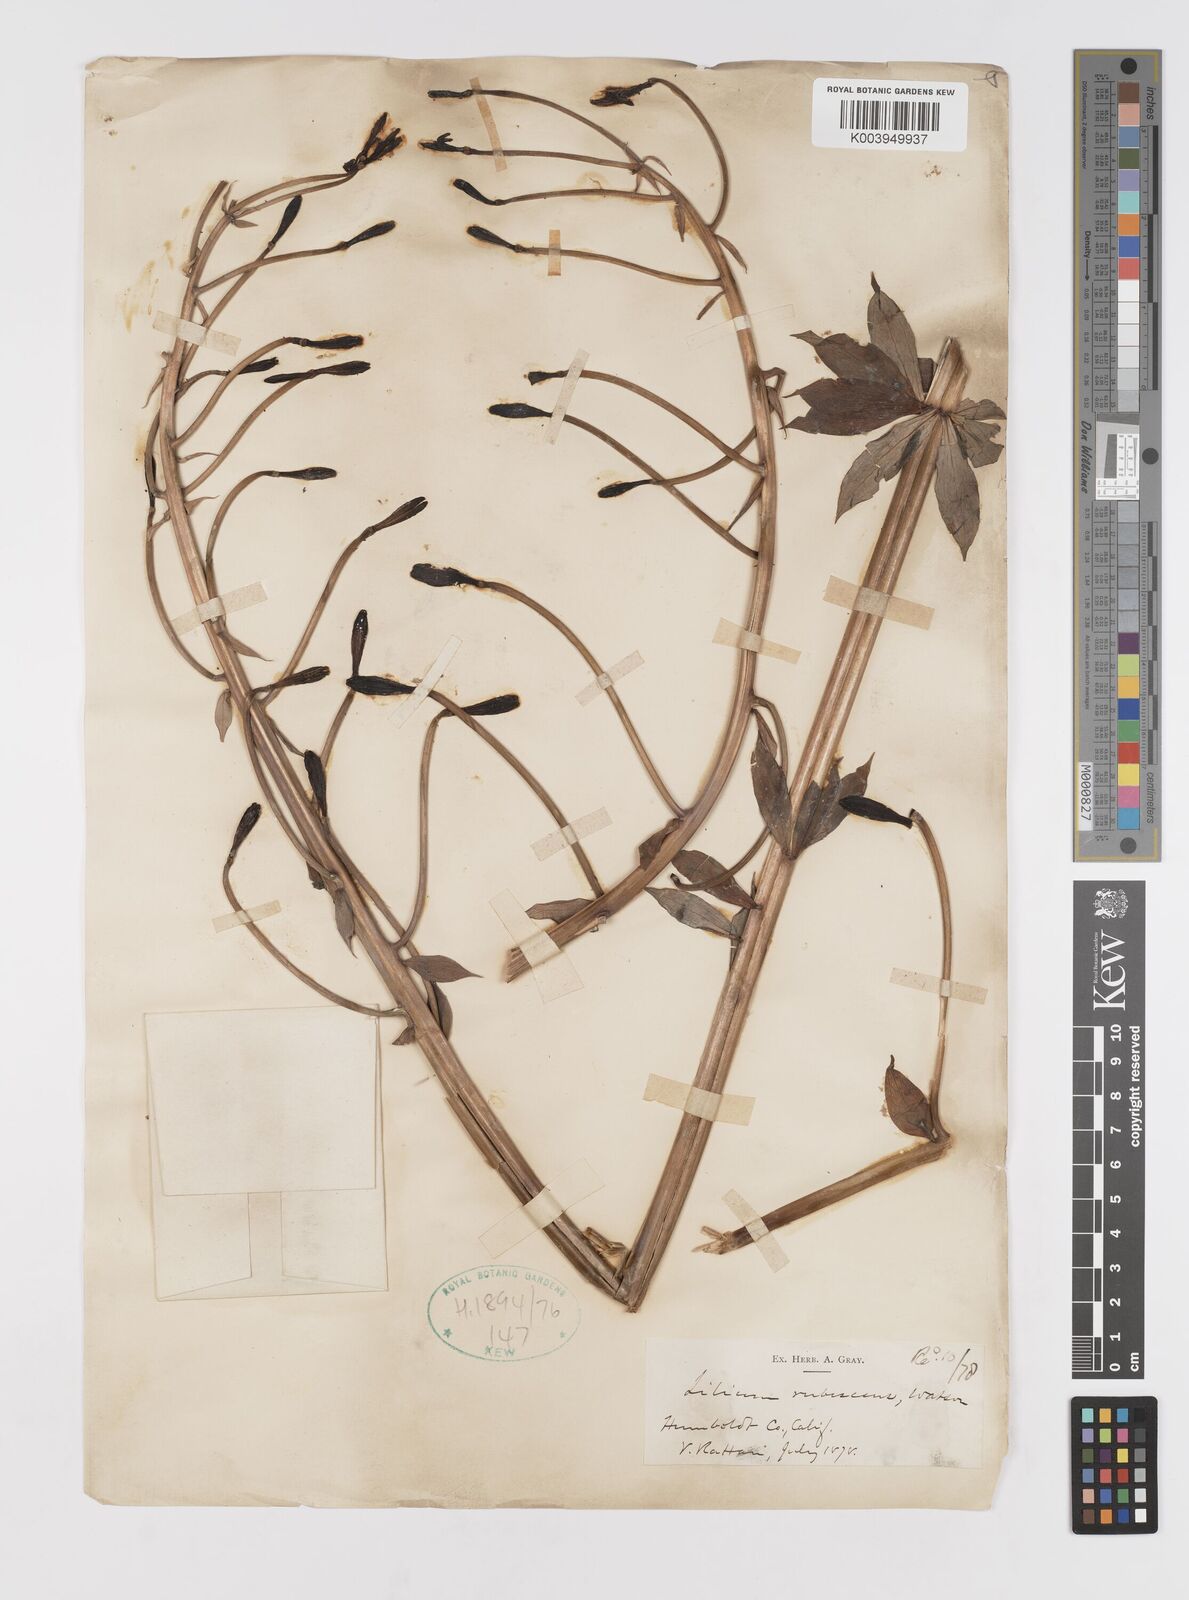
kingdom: Plantae
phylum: Tracheophyta
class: Liliopsida
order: Liliales
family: Liliaceae
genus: Lilium
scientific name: Lilium washingtonianum
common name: Washington lily
